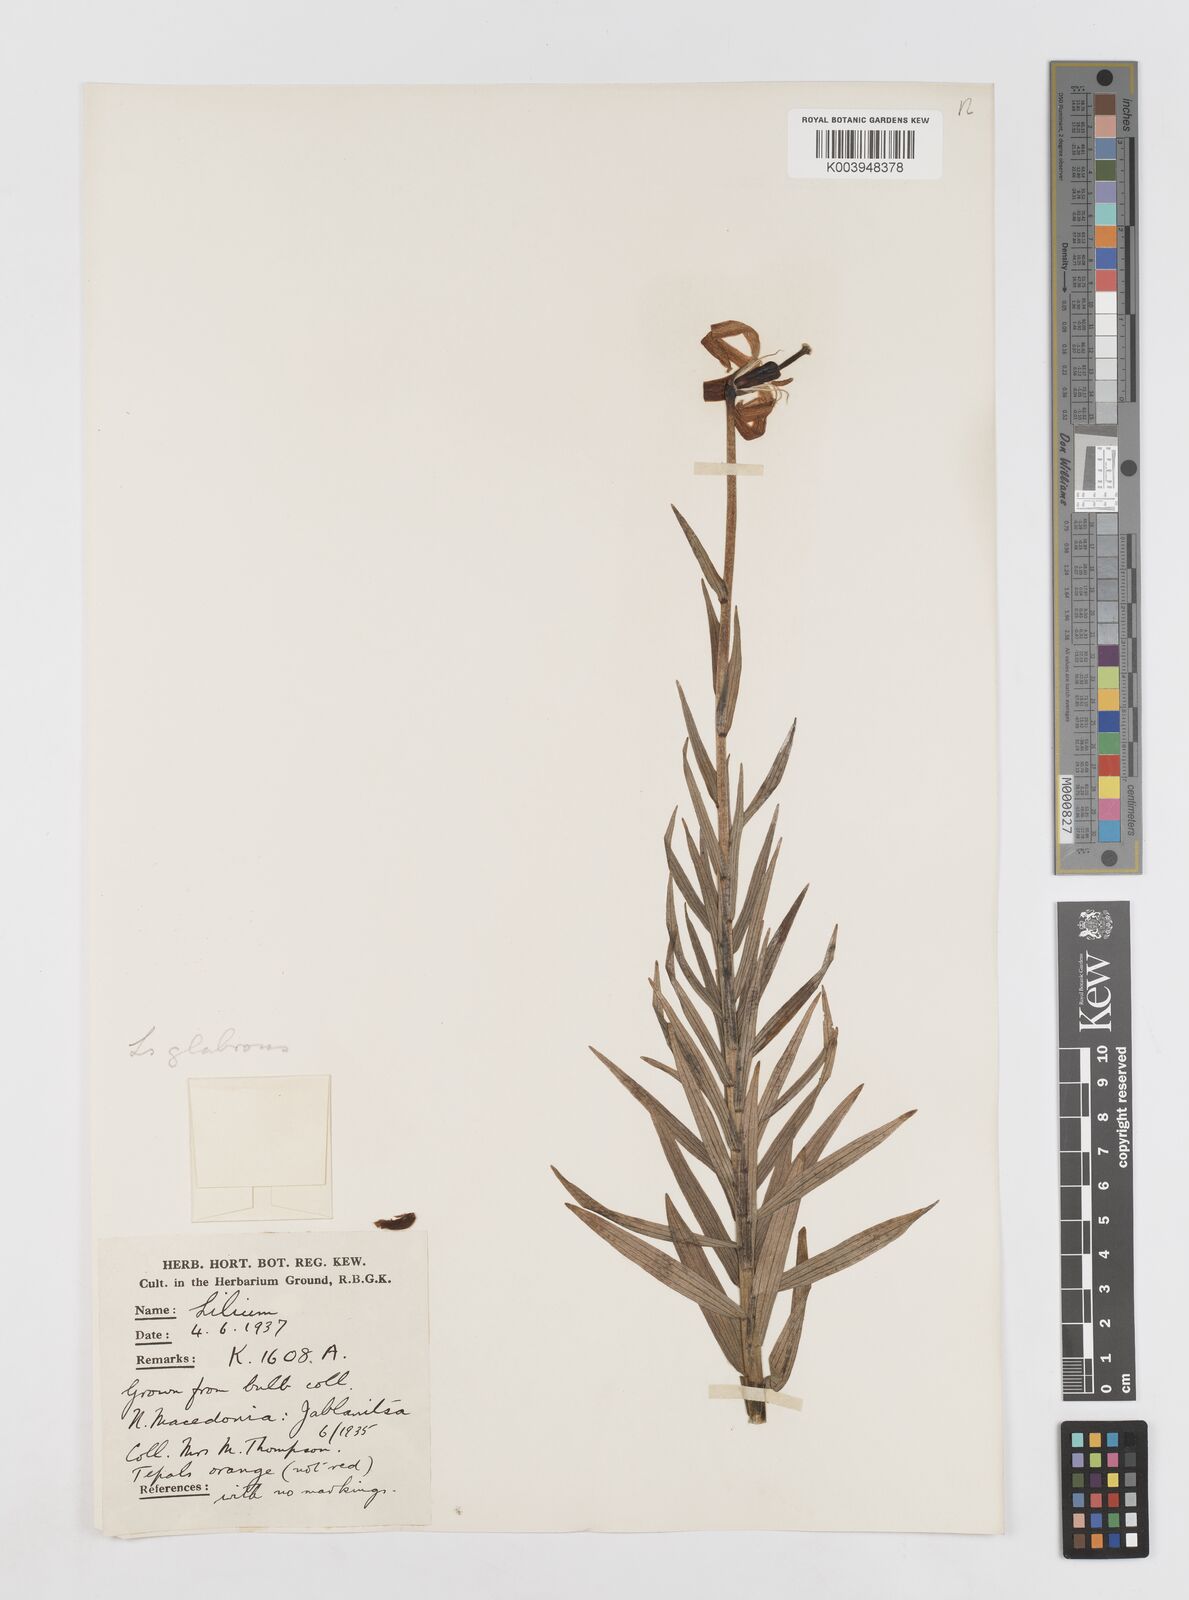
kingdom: Plantae
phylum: Tracheophyta
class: Liliopsida
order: Liliales
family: Liliaceae
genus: Lilium
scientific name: Lilium carniolicum
